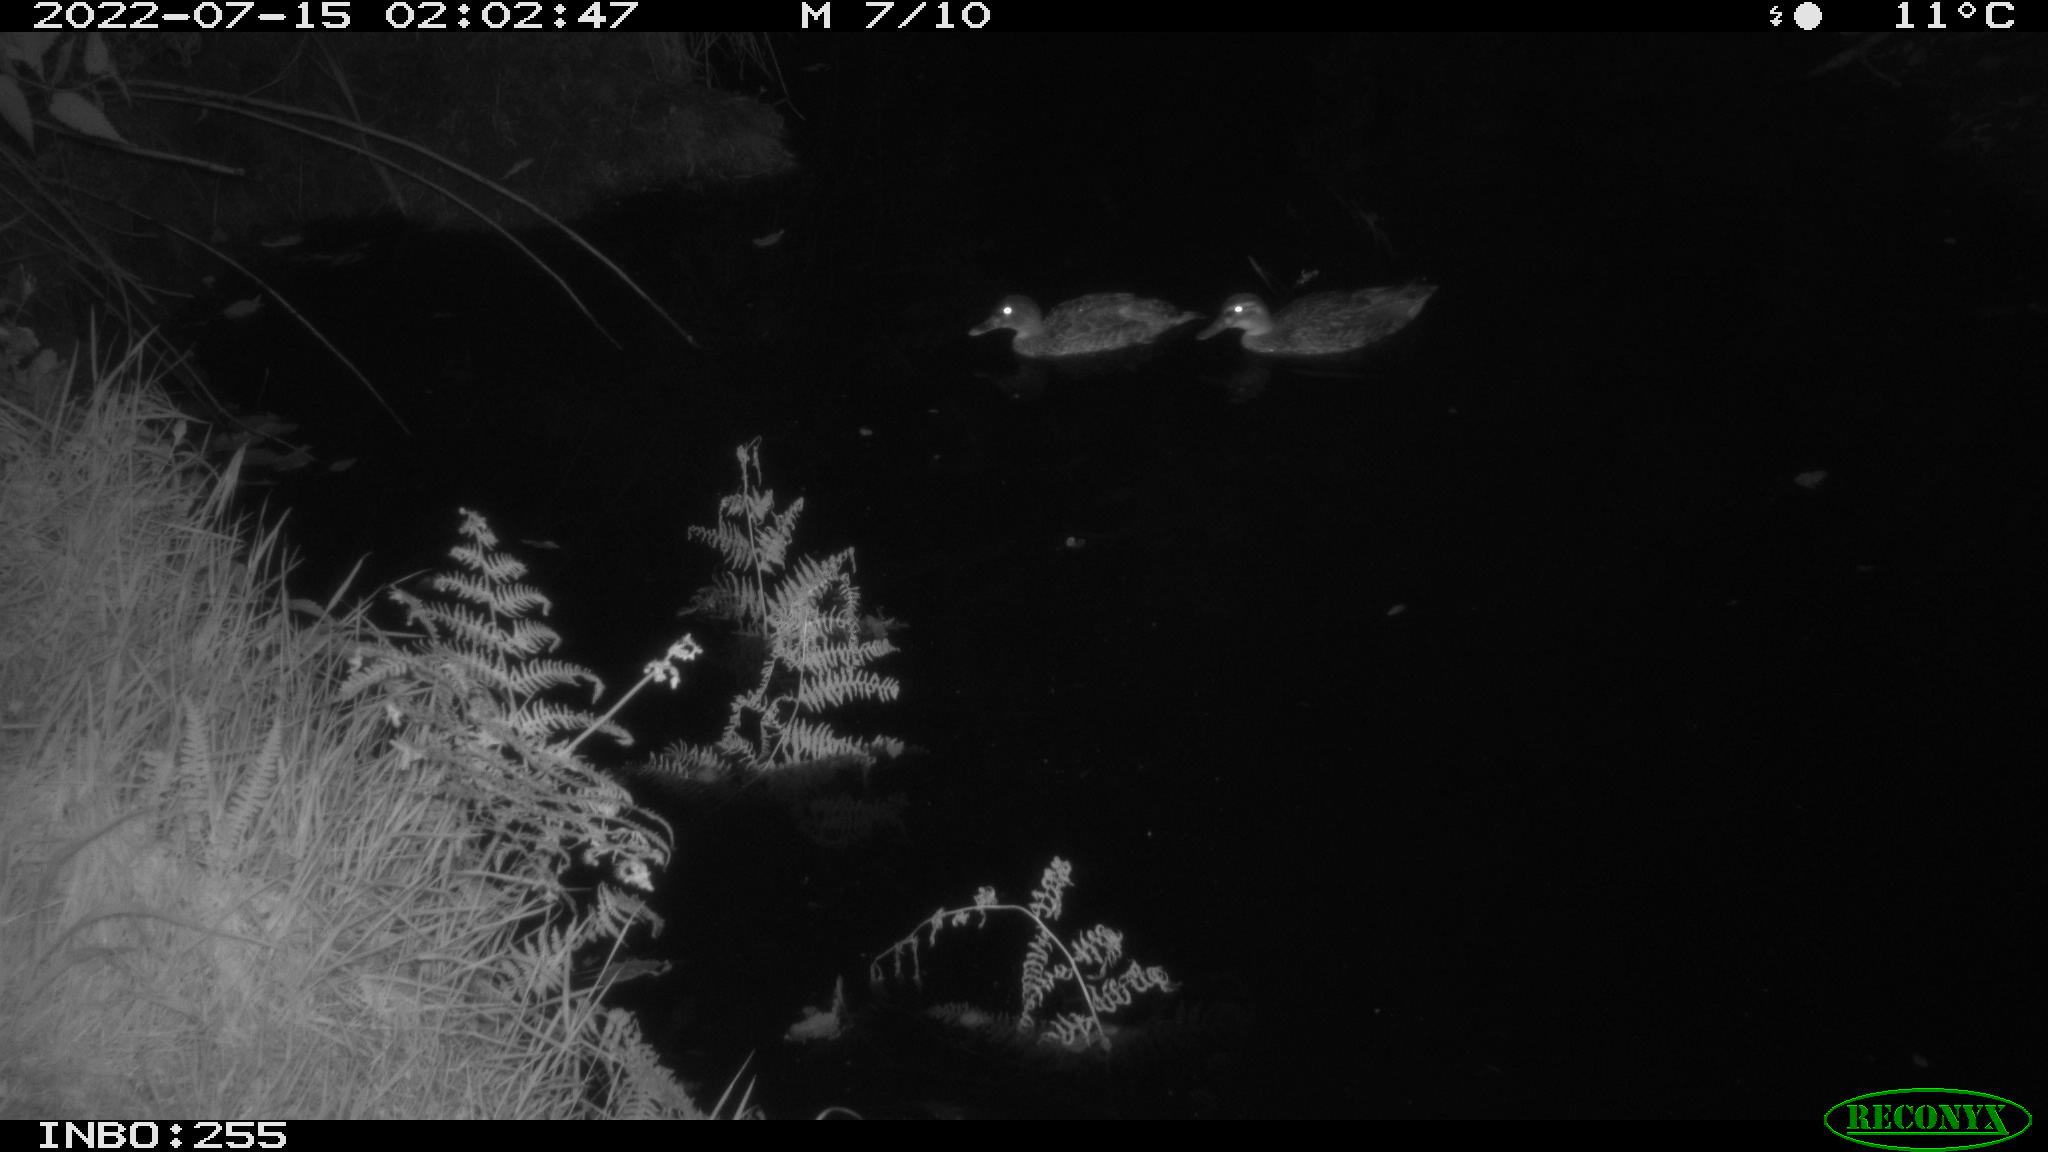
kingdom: Animalia
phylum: Chordata
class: Aves
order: Anseriformes
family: Anatidae
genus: Anas
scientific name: Anas platyrhynchos
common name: Mallard
